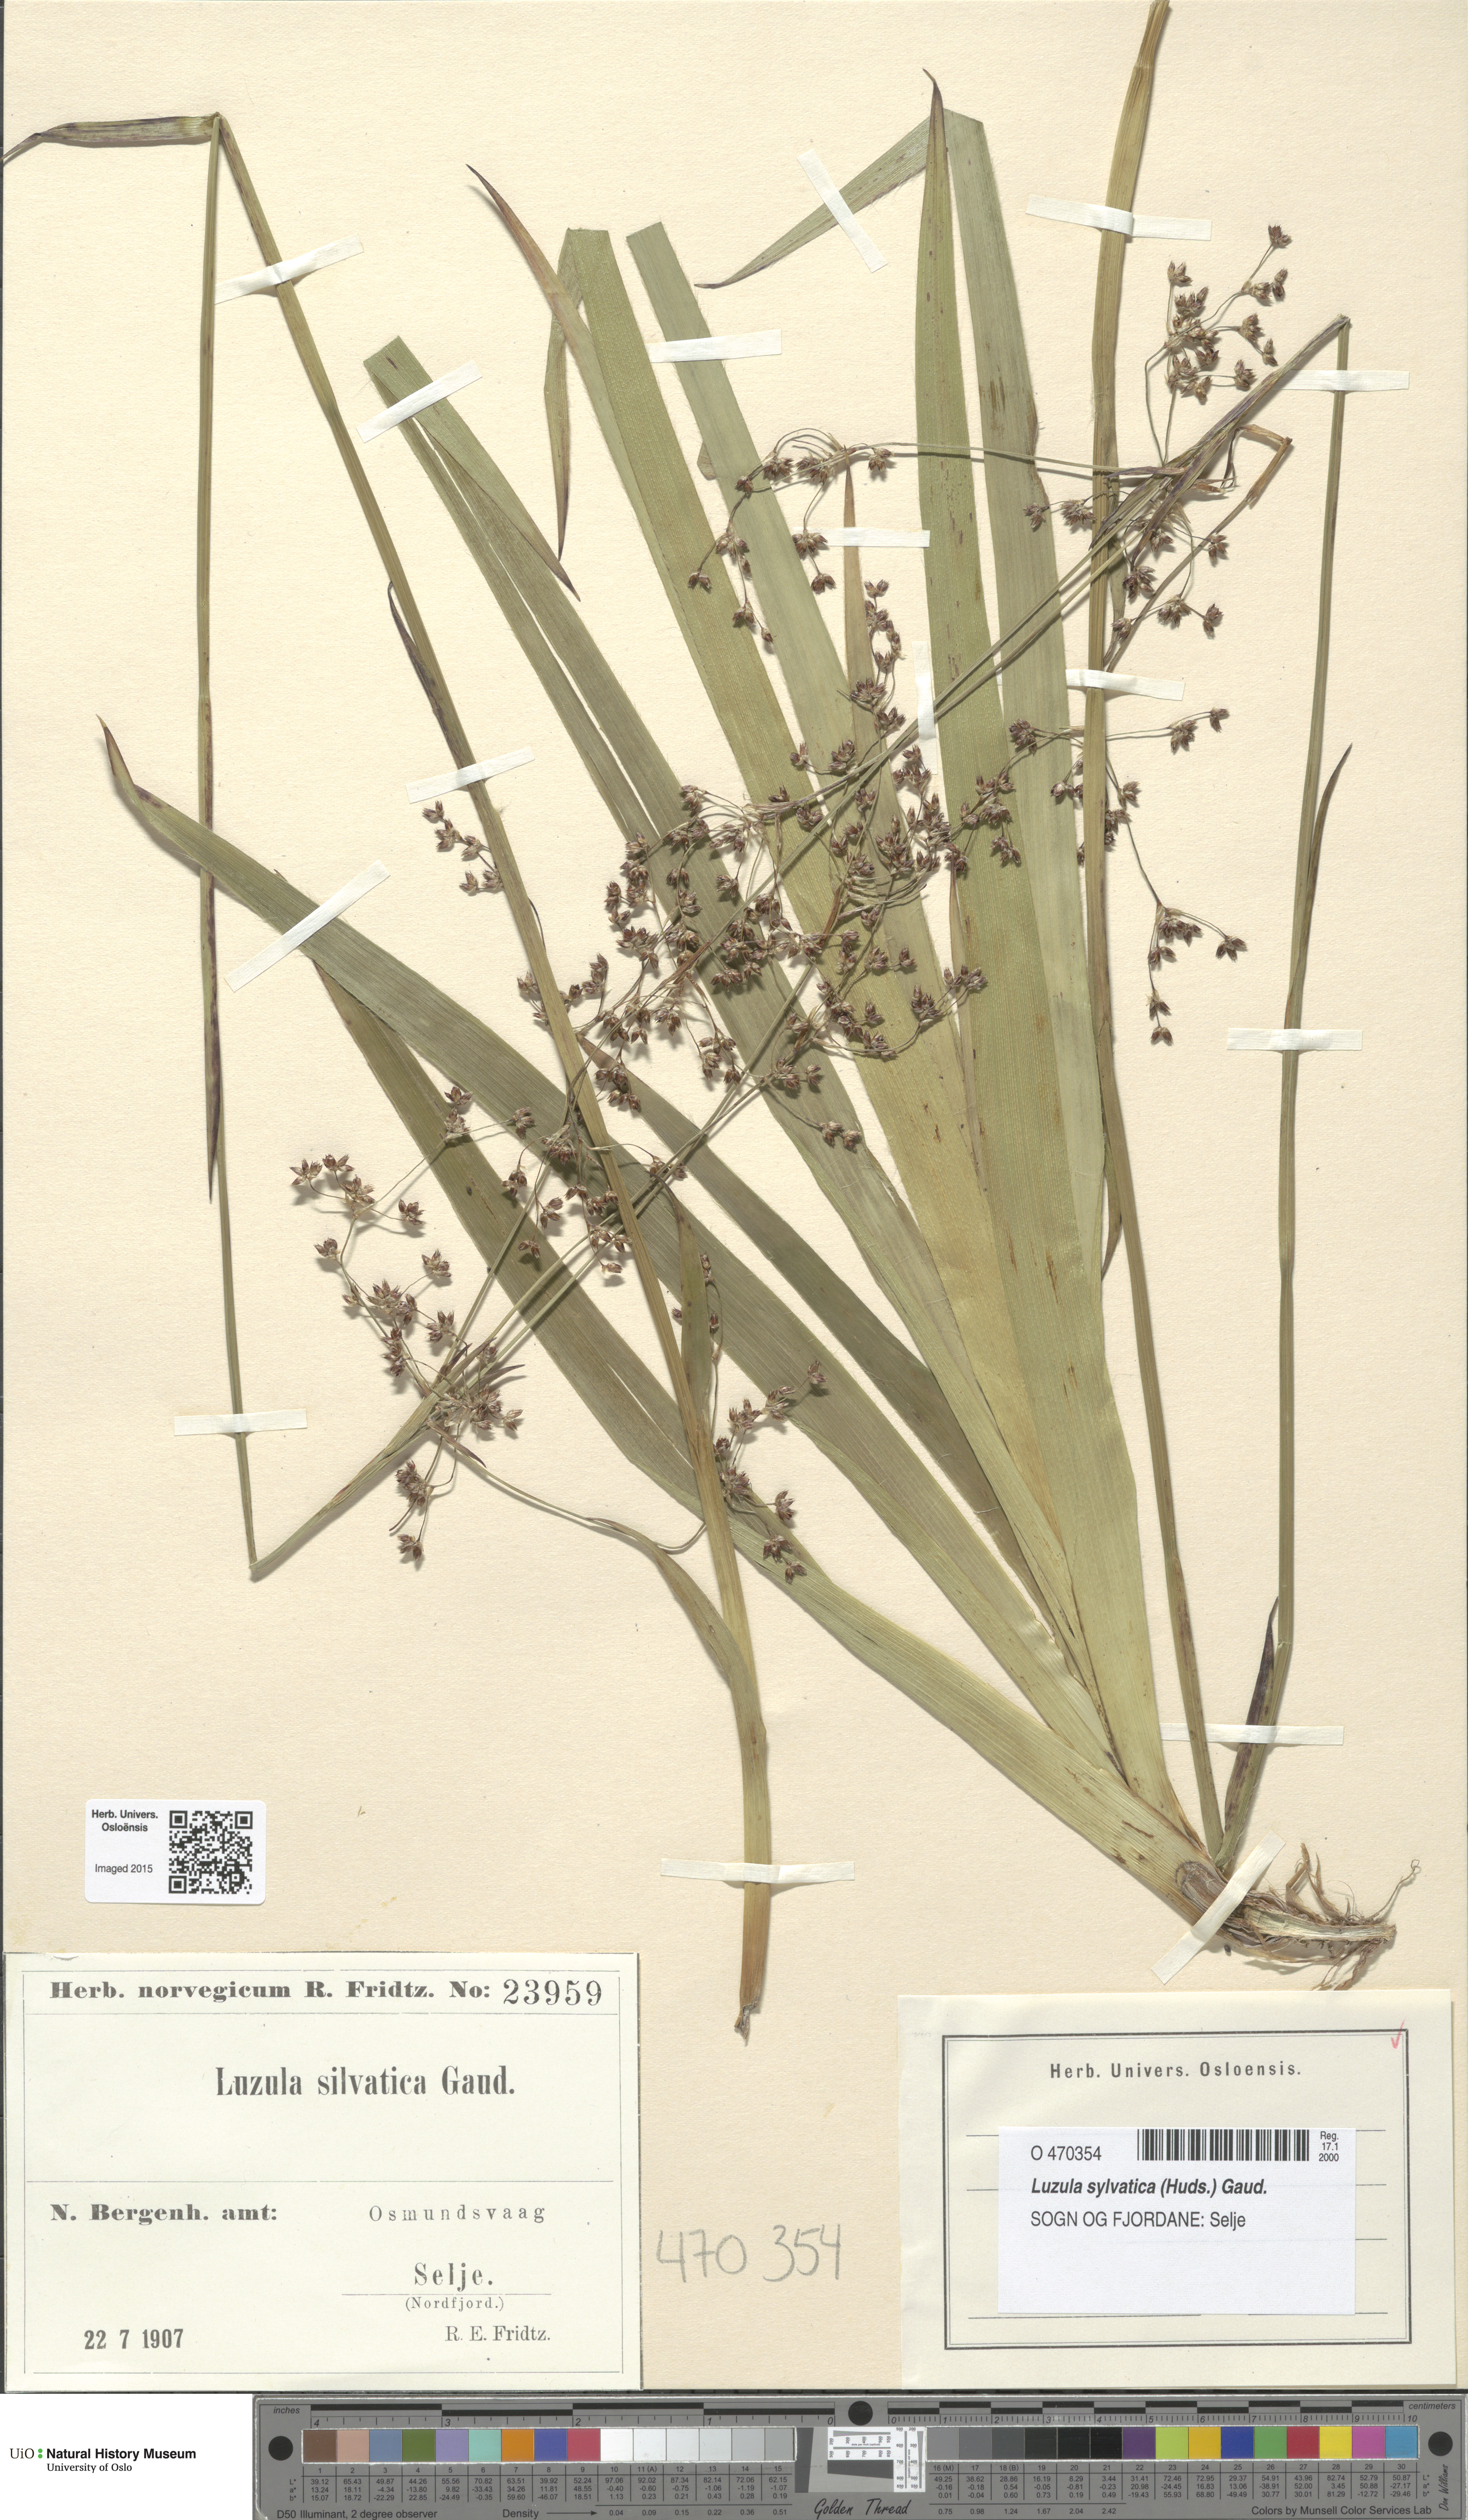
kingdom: Plantae
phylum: Tracheophyta
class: Liliopsida
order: Poales
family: Juncaceae
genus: Luzula
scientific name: Luzula sylvatica
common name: Great wood-rush
